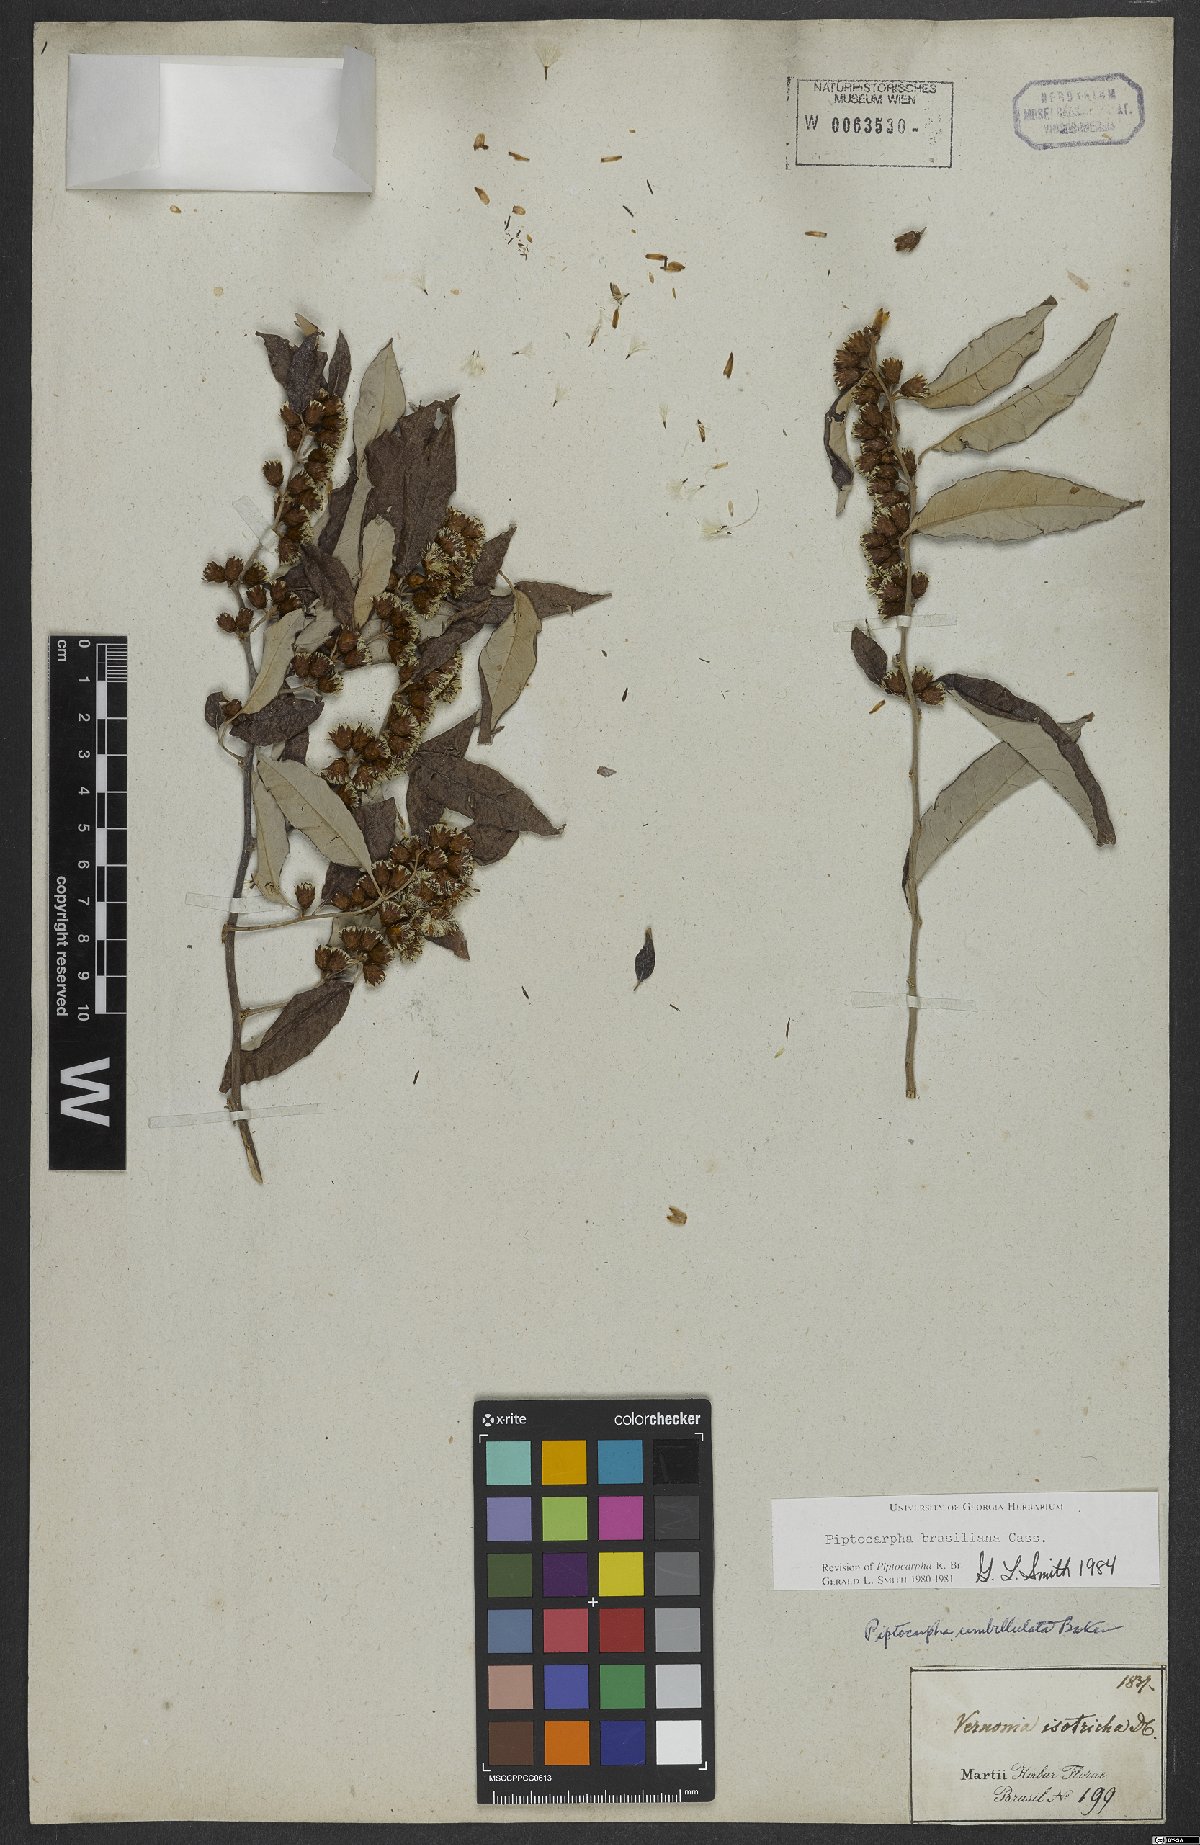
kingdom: Plantae
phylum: Tracheophyta
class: Magnoliopsida
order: Asterales
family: Asteraceae
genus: Piptocarpha
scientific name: Piptocarpha brasiliana
